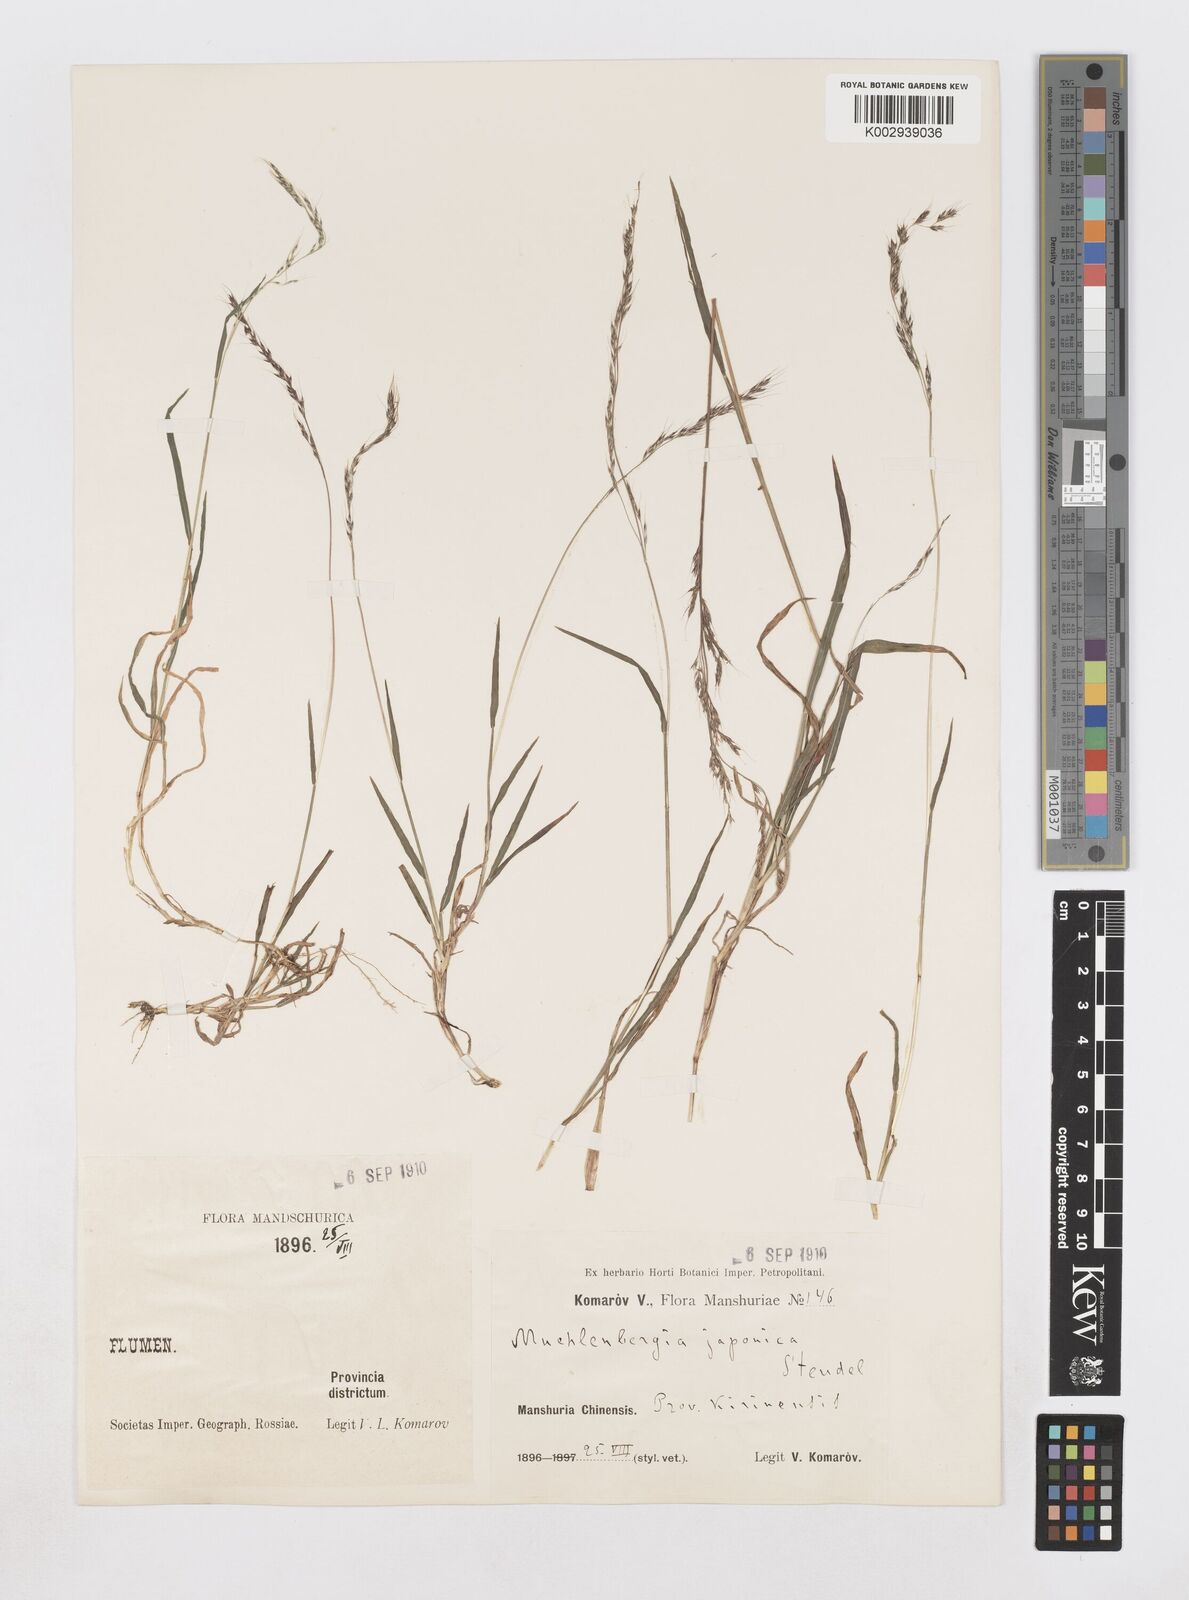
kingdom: Plantae
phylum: Tracheophyta
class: Liliopsida
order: Poales
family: Poaceae
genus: Muhlenbergia
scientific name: Muhlenbergia japonica
